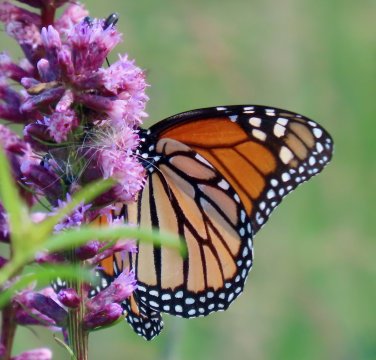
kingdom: Animalia
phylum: Arthropoda
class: Insecta
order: Lepidoptera
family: Nymphalidae
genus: Danaus
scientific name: Danaus plexippus
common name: Monarch
